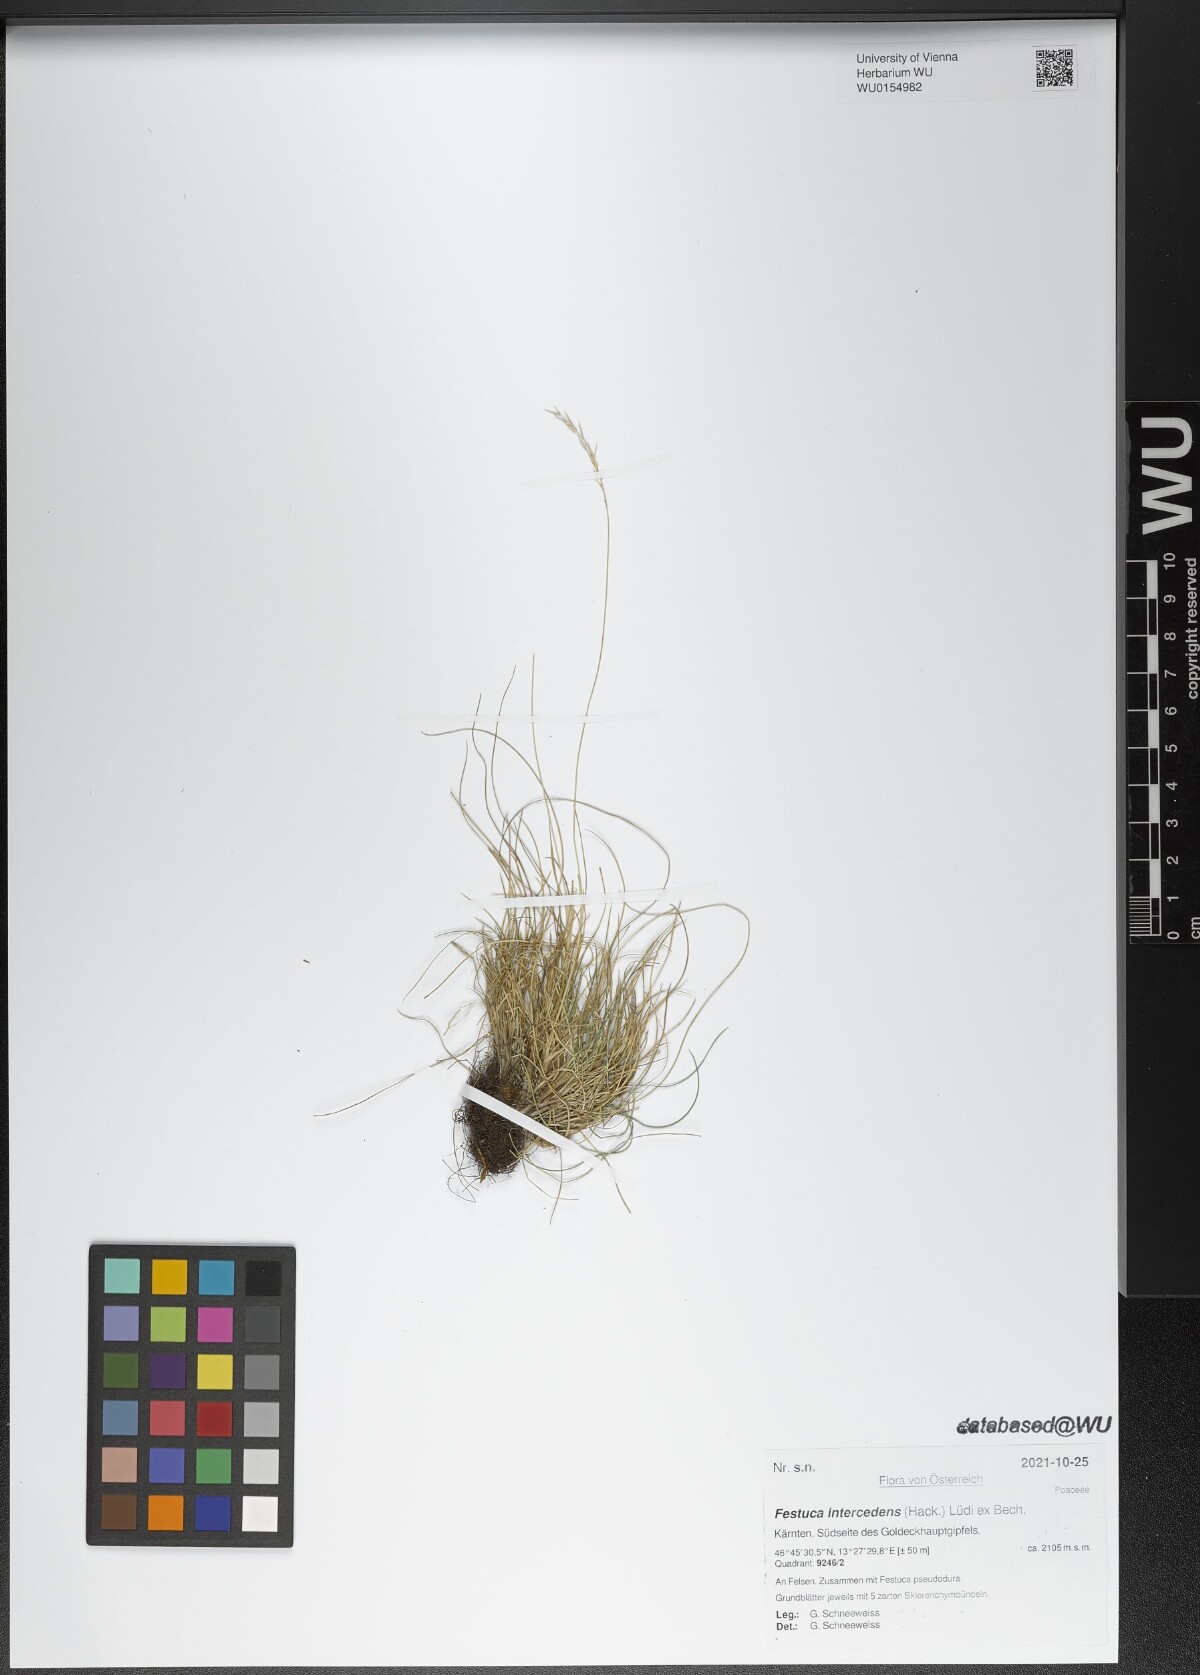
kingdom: Plantae
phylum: Tracheophyta
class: Liliopsida
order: Poales
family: Poaceae
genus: Festuca
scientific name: Festuca intercedens
